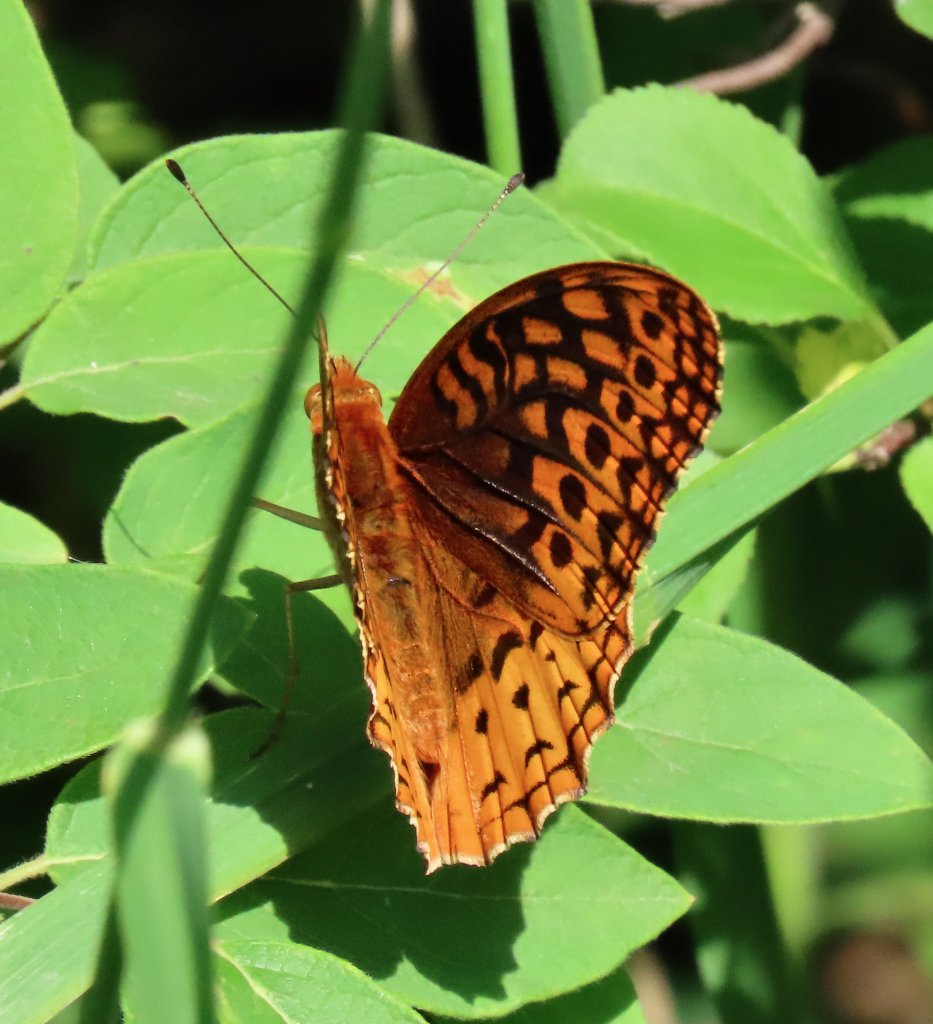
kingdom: Animalia
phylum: Arthropoda
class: Insecta
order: Lepidoptera
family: Nymphalidae
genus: Speyeria
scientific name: Speyeria cybele
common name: Great Spangled Fritillary
